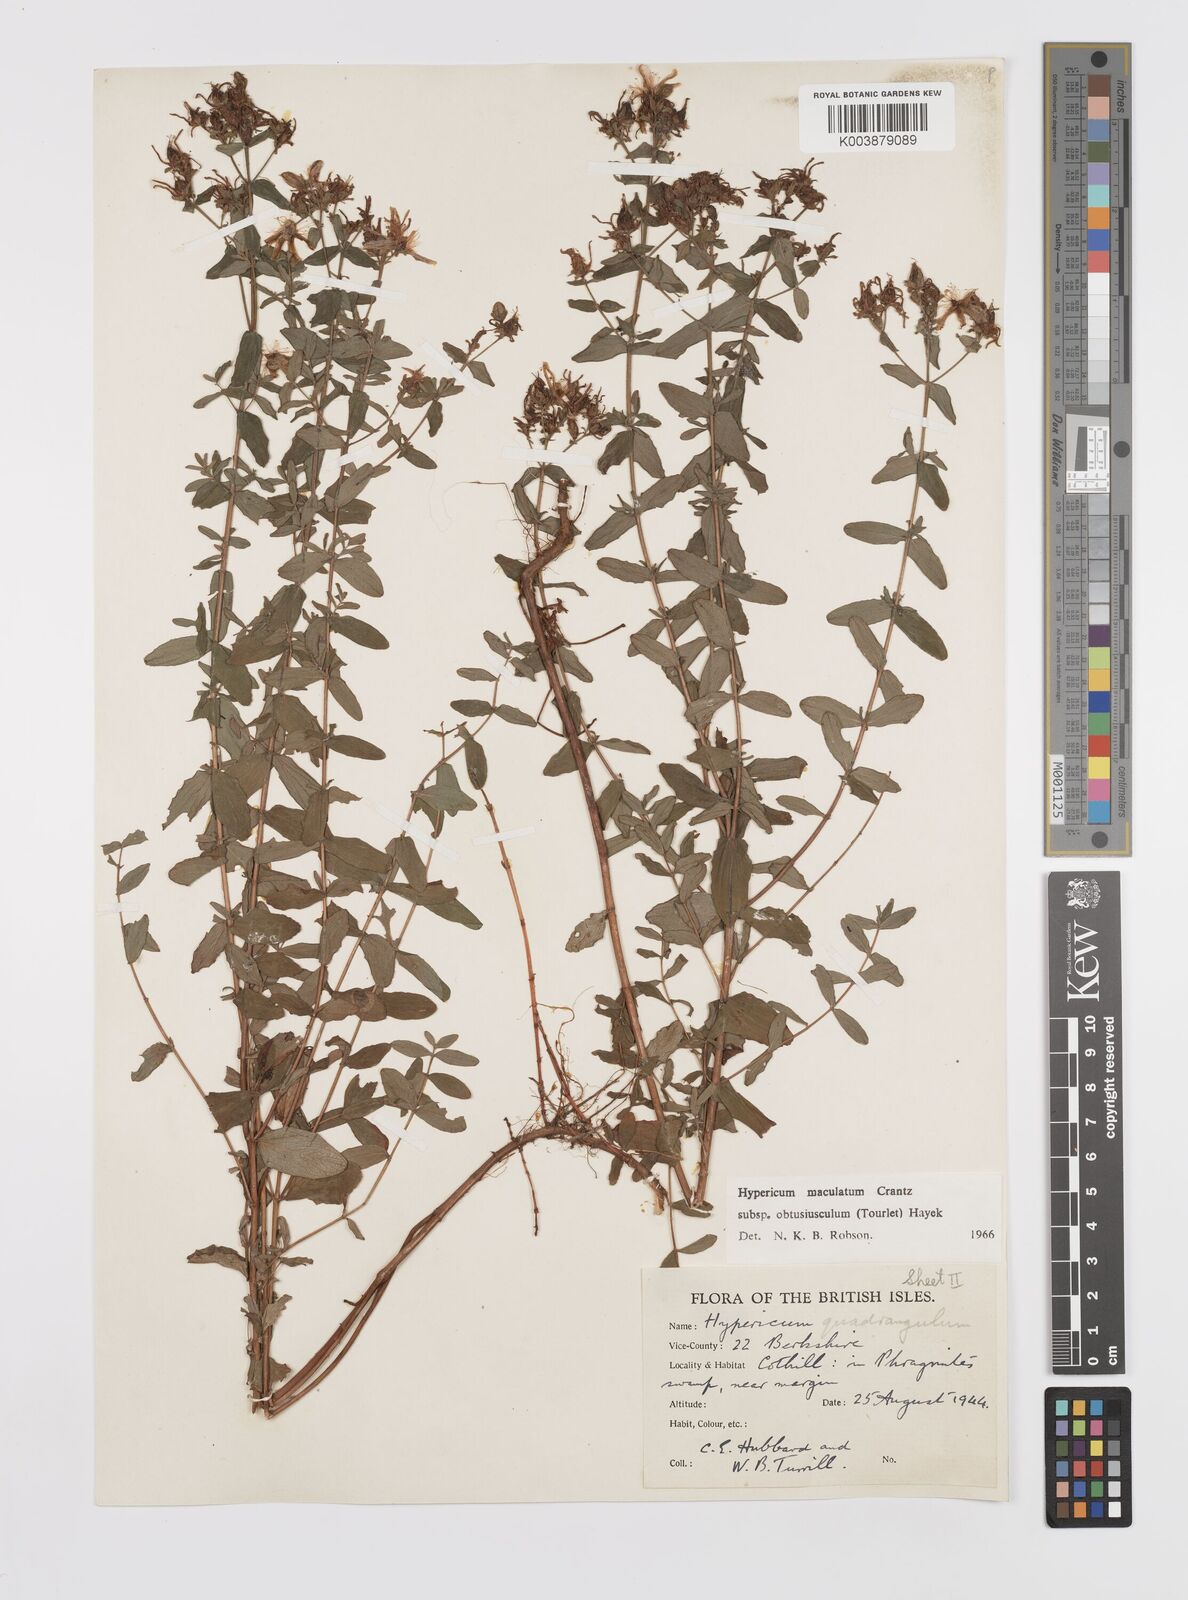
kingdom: Plantae
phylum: Tracheophyta
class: Magnoliopsida
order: Malpighiales
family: Hypericaceae
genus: Hypericum
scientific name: Hypericum dubium
